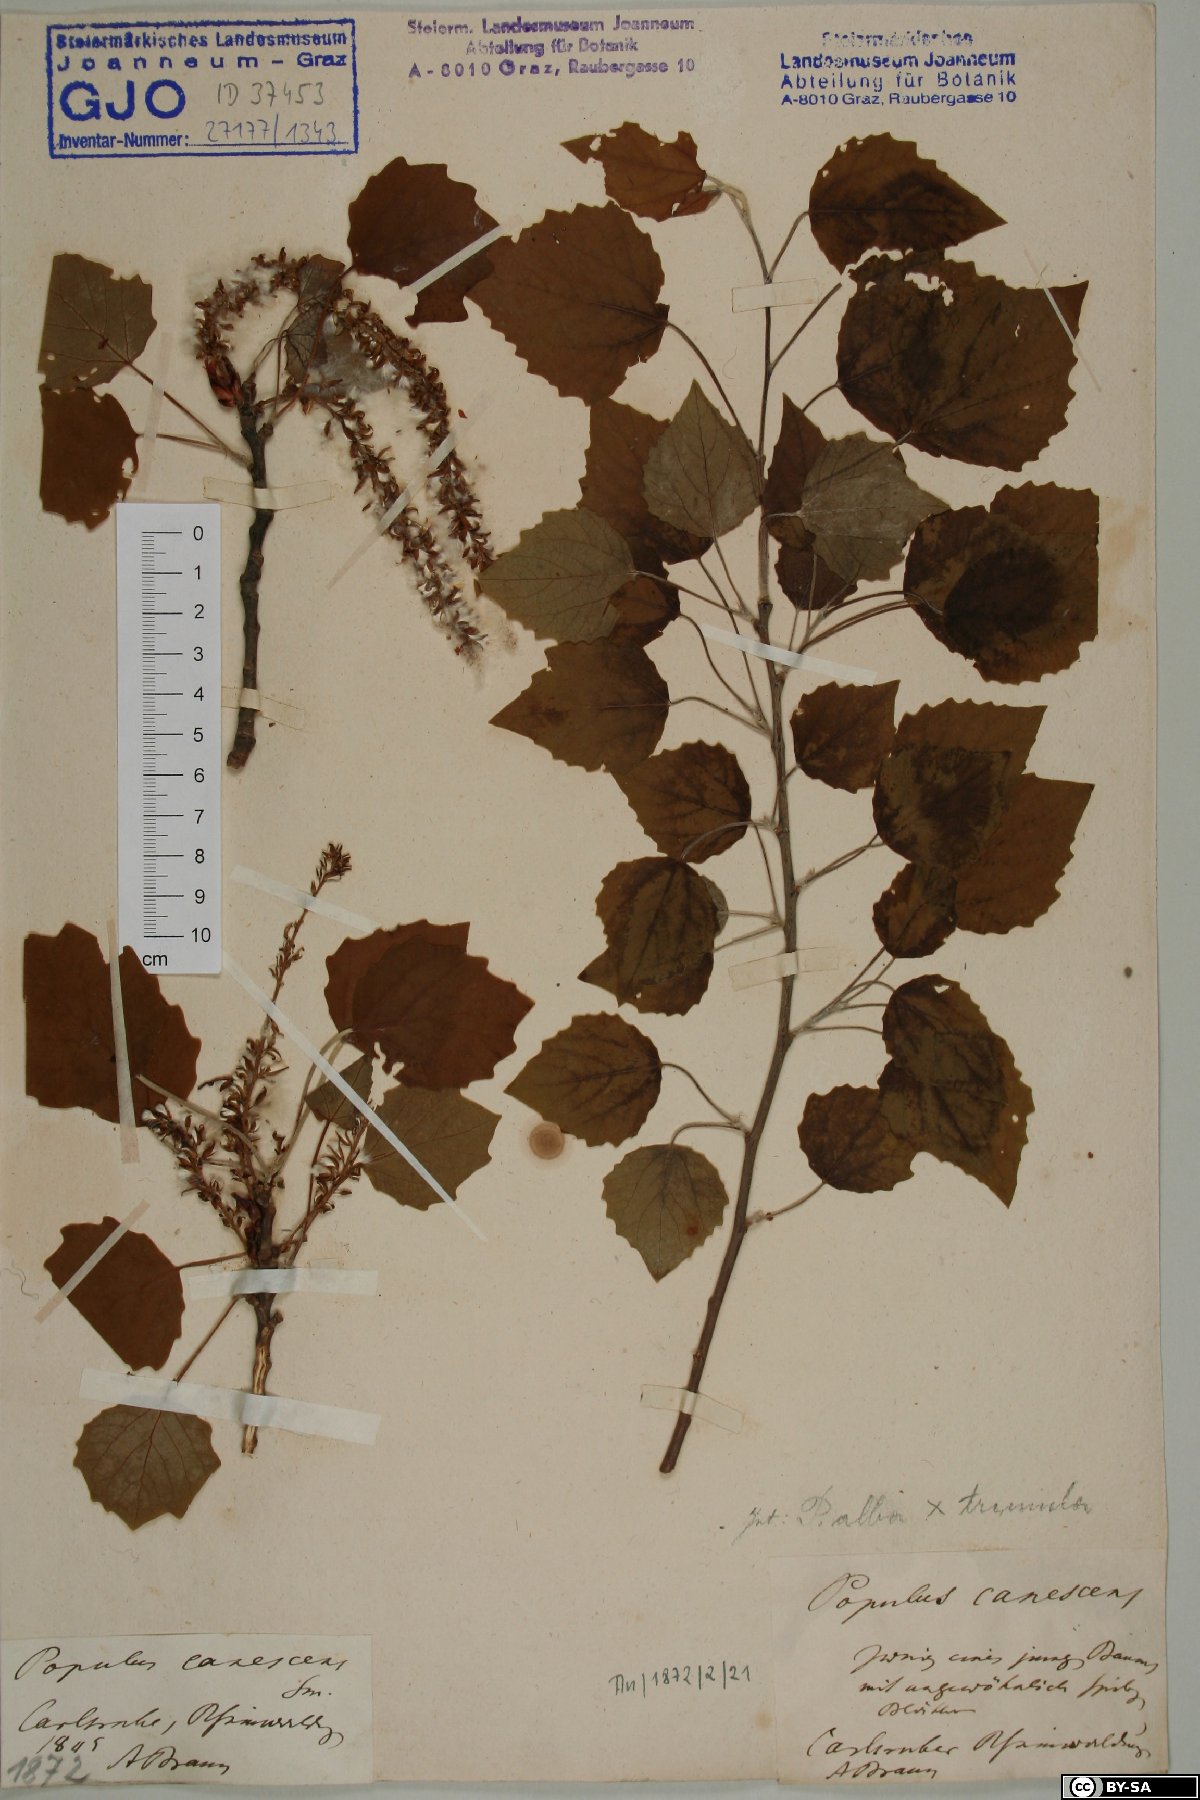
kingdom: Plantae
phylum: Tracheophyta
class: Magnoliopsida
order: Malpighiales
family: Salicaceae
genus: Populus
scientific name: Populus canescens
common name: Gray poplar
